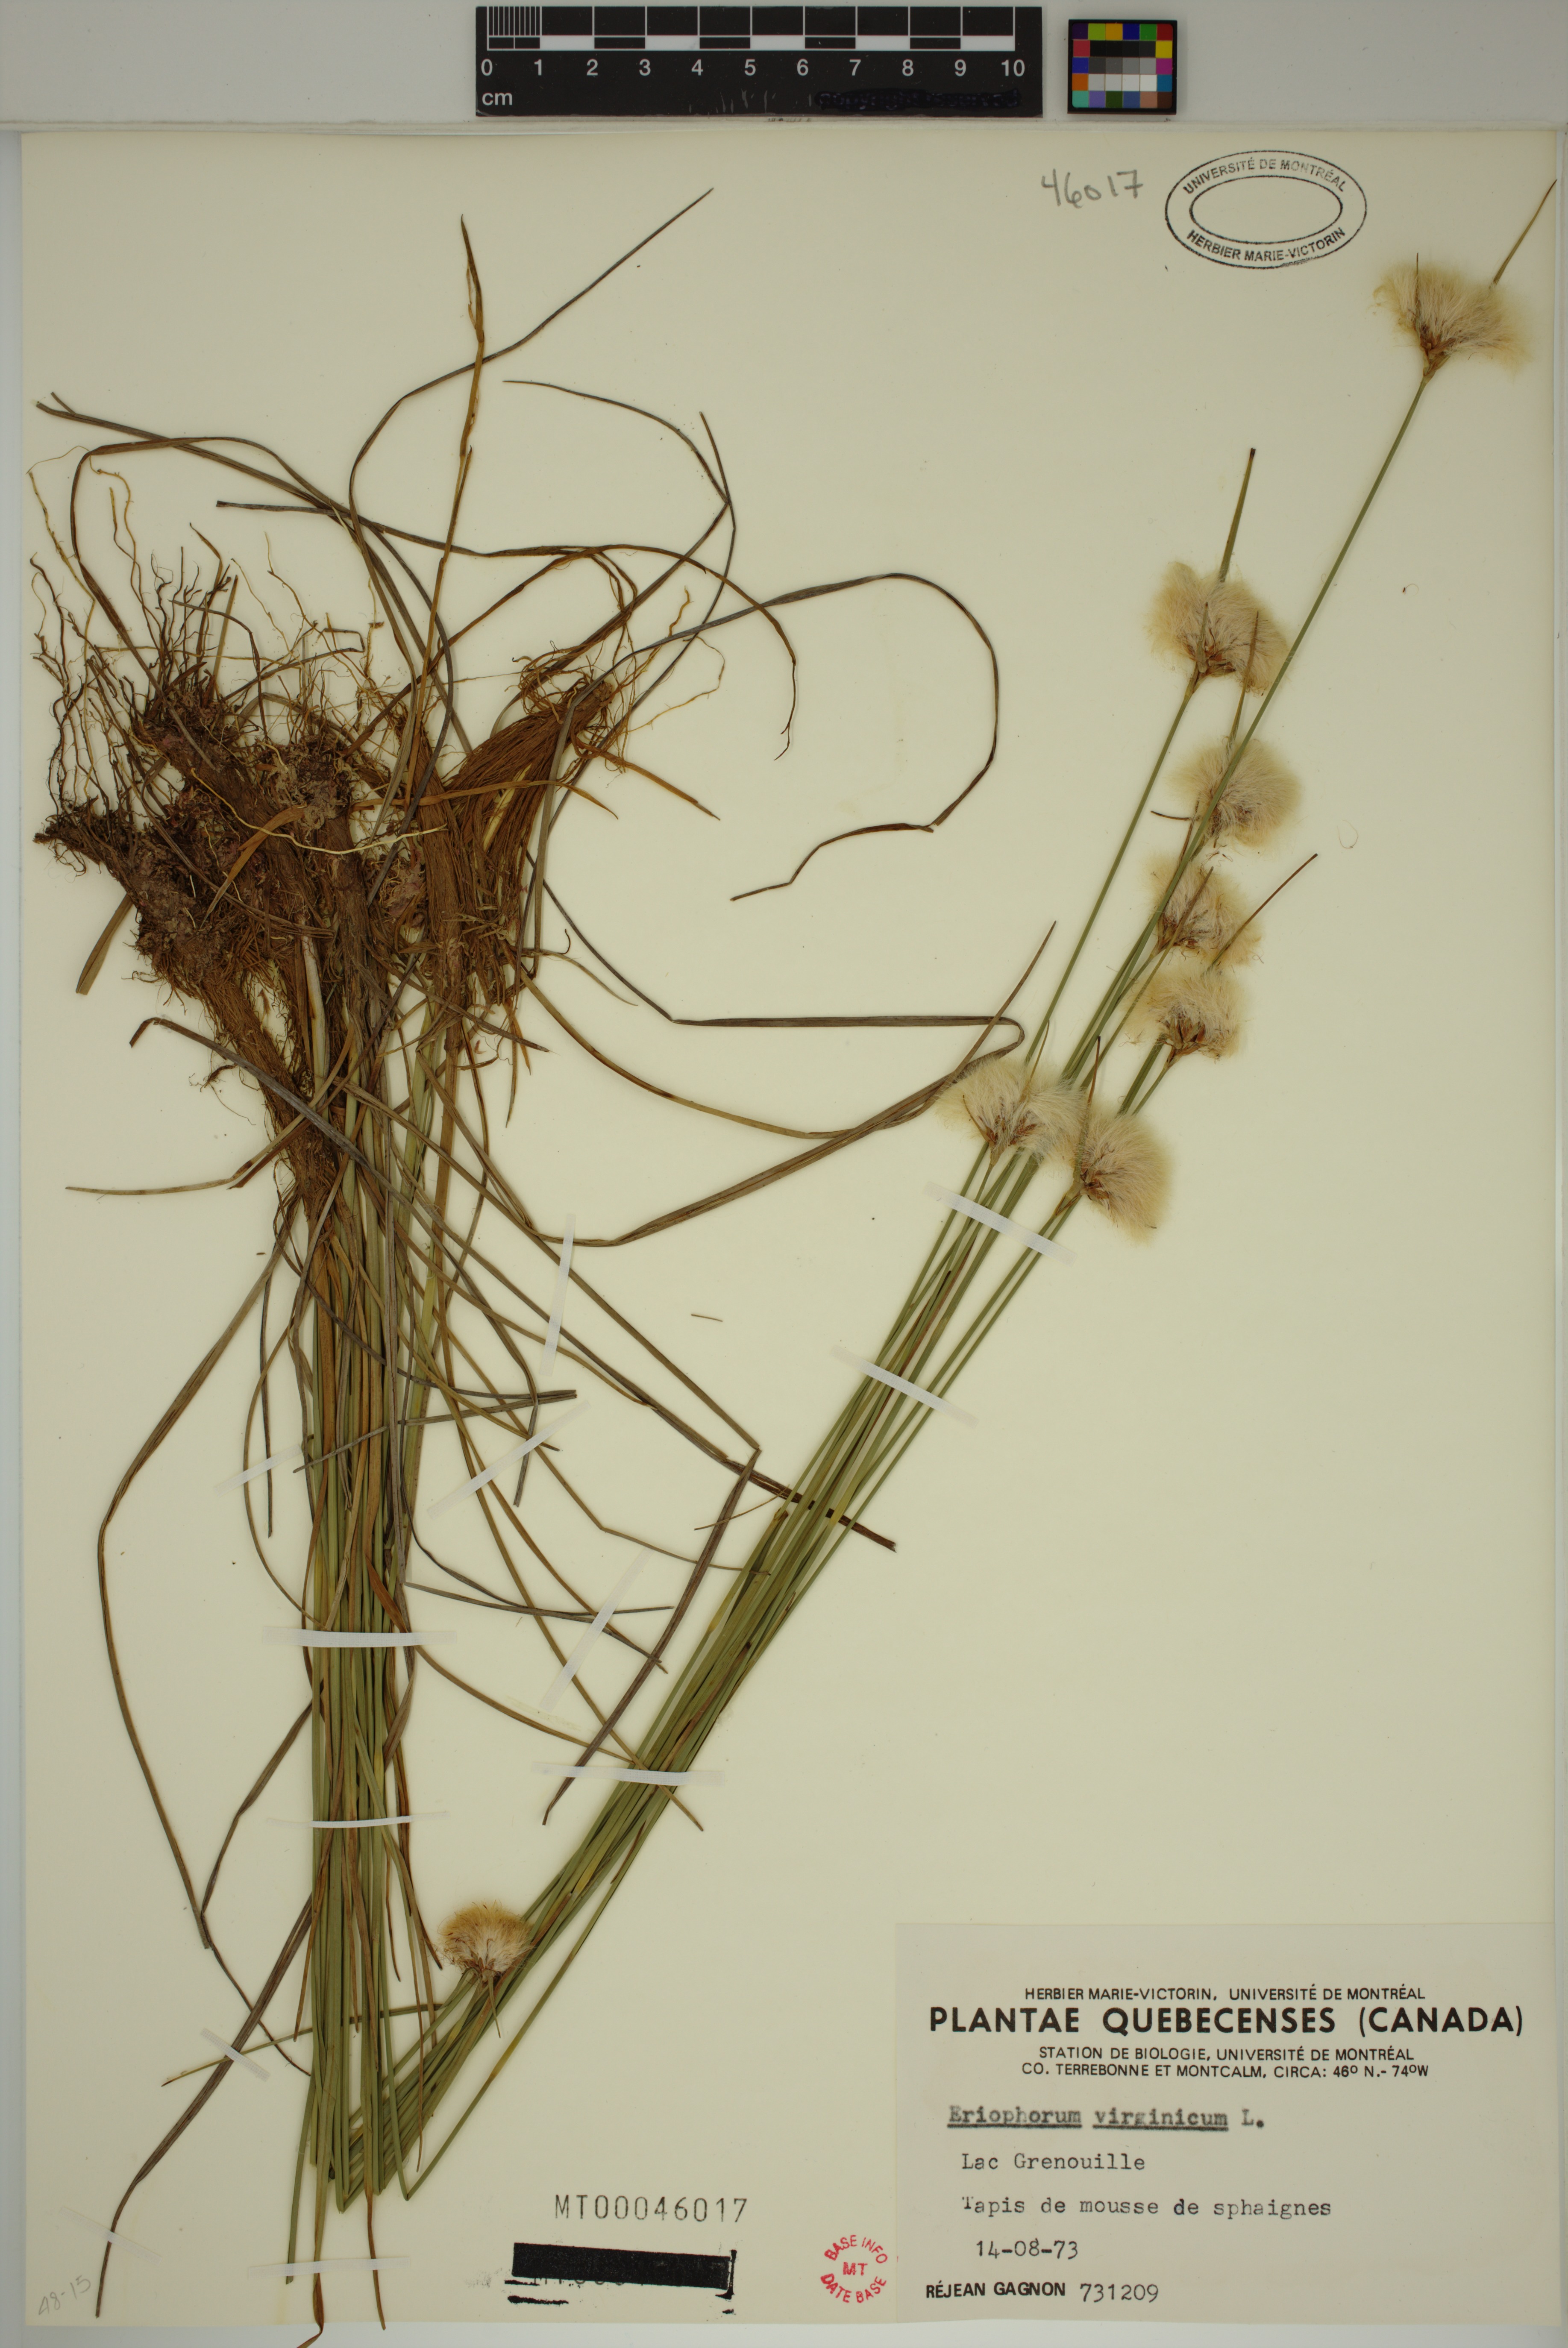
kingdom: Plantae
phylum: Tracheophyta
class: Liliopsida
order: Poales
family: Cyperaceae
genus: Eriophorum
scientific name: Eriophorum virginicum
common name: Tawny cottongrass
